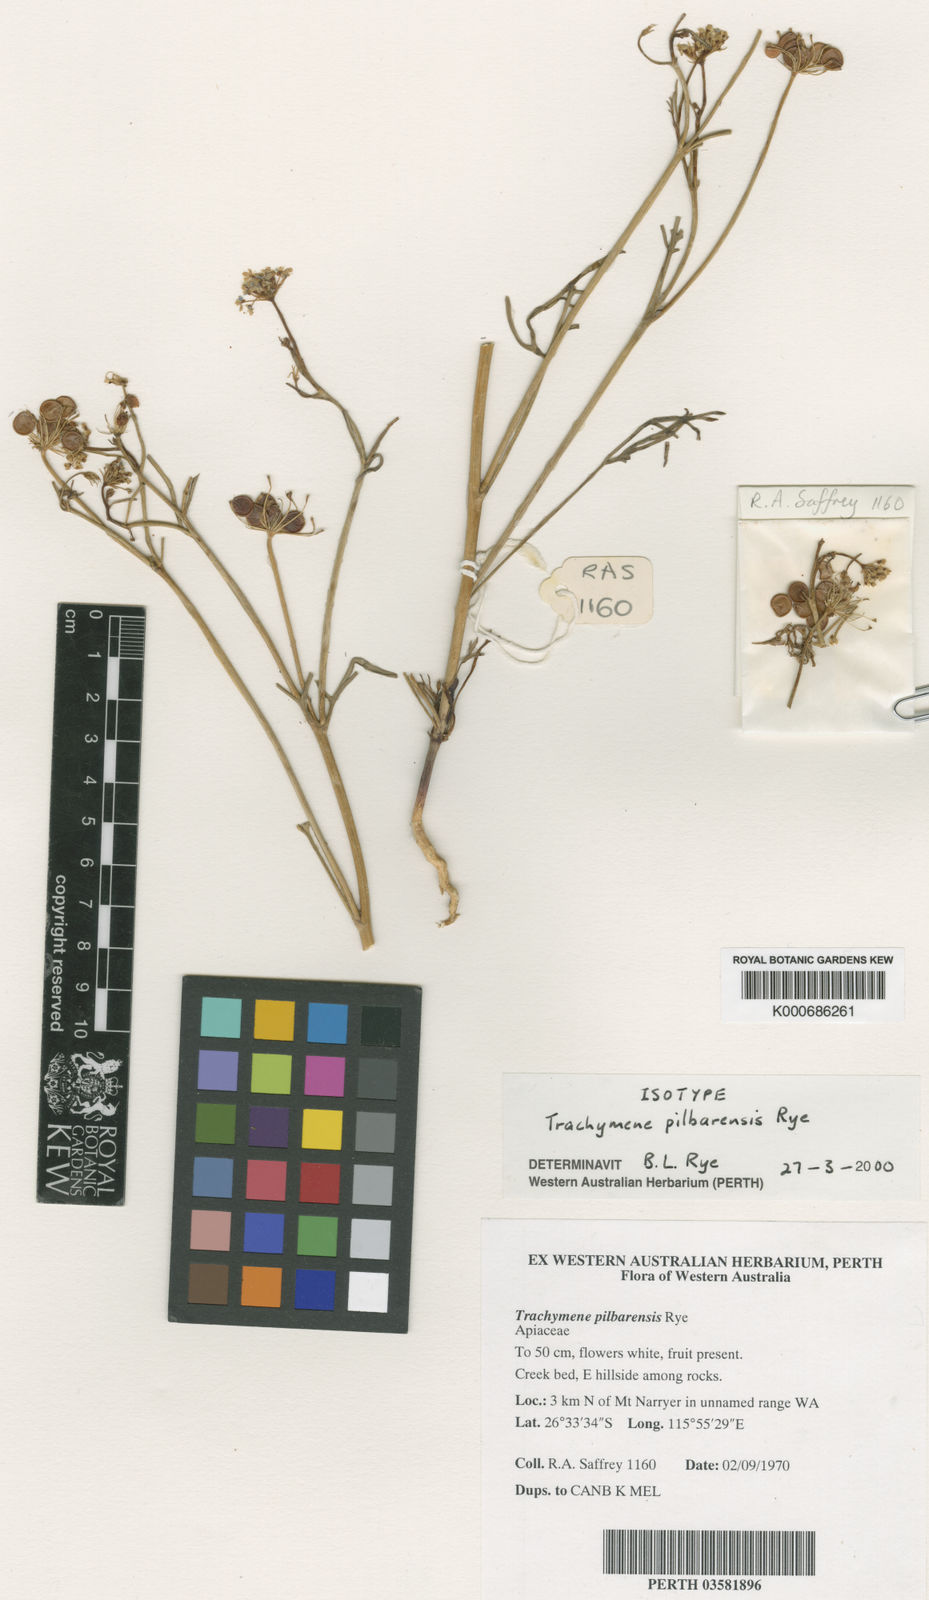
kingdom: Plantae
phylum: Tracheophyta
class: Magnoliopsida
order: Apiales
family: Araliaceae
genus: Trachymene
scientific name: Trachymene pilbarensis
